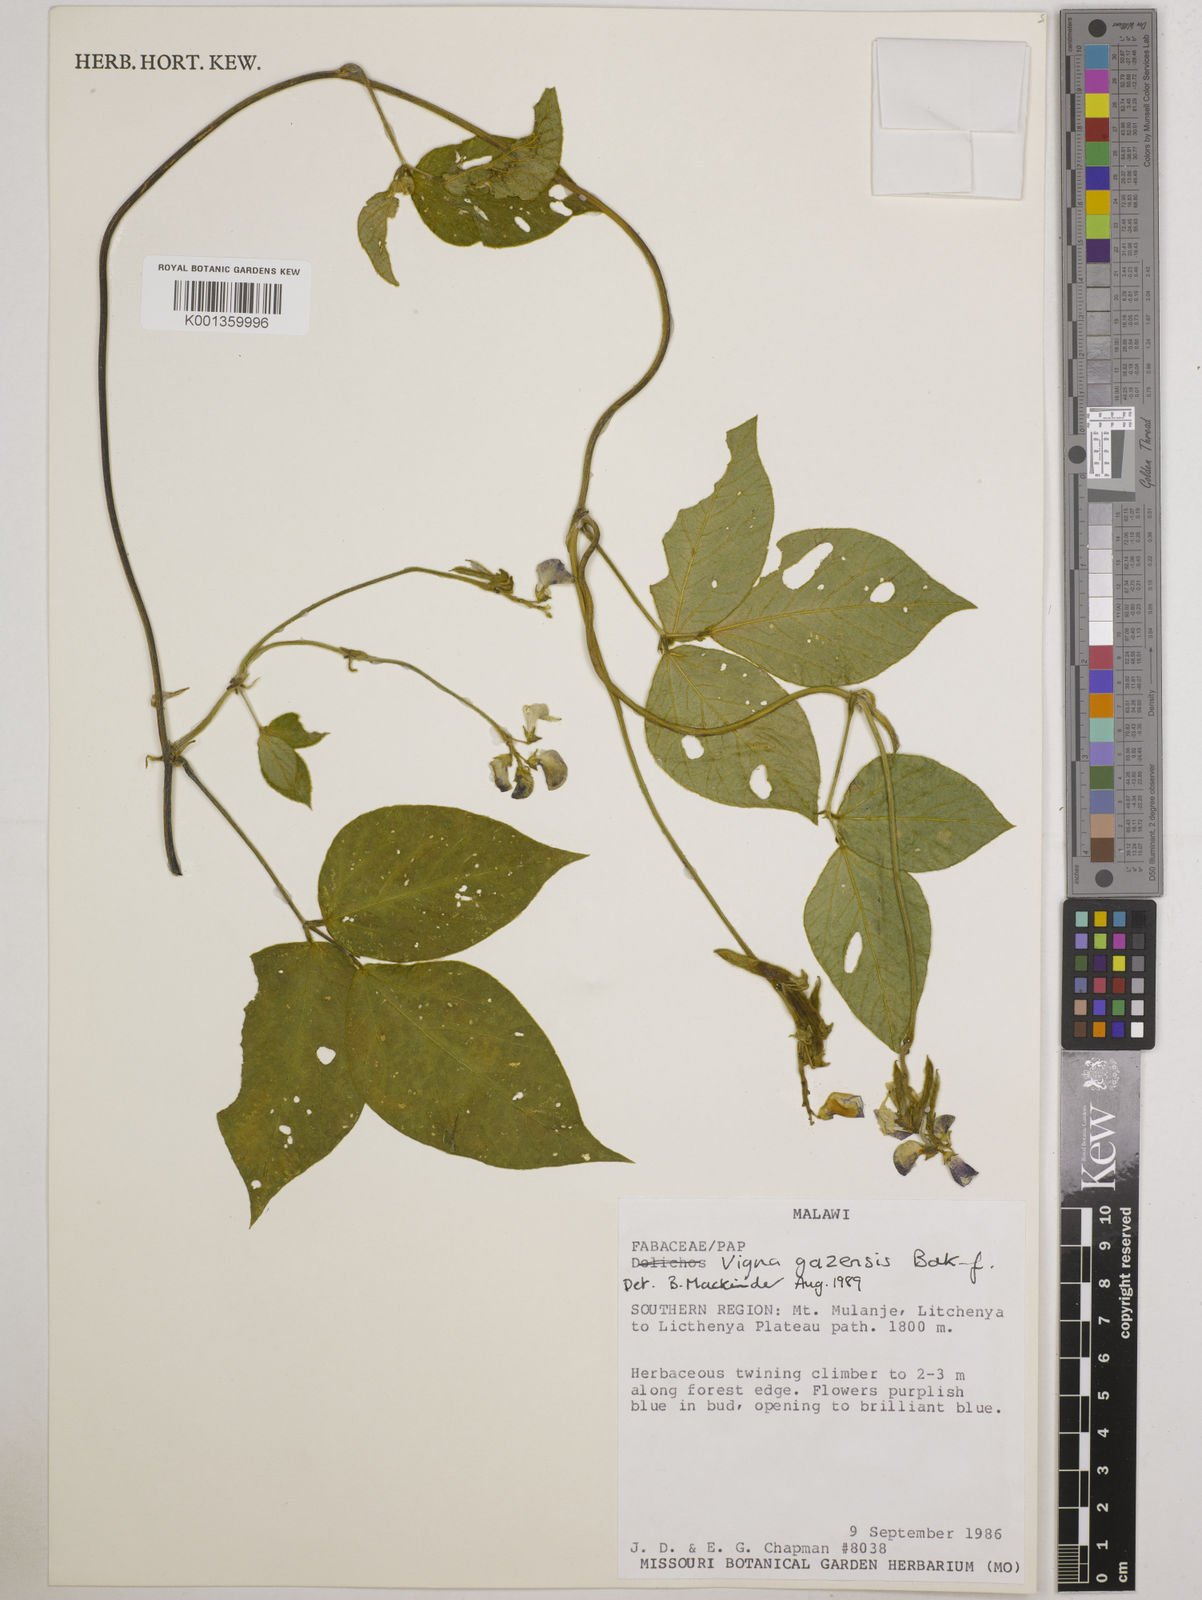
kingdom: Plantae
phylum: Tracheophyta
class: Magnoliopsida
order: Fabales
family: Fabaceae
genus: Vigna
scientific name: Vigna gazensis
